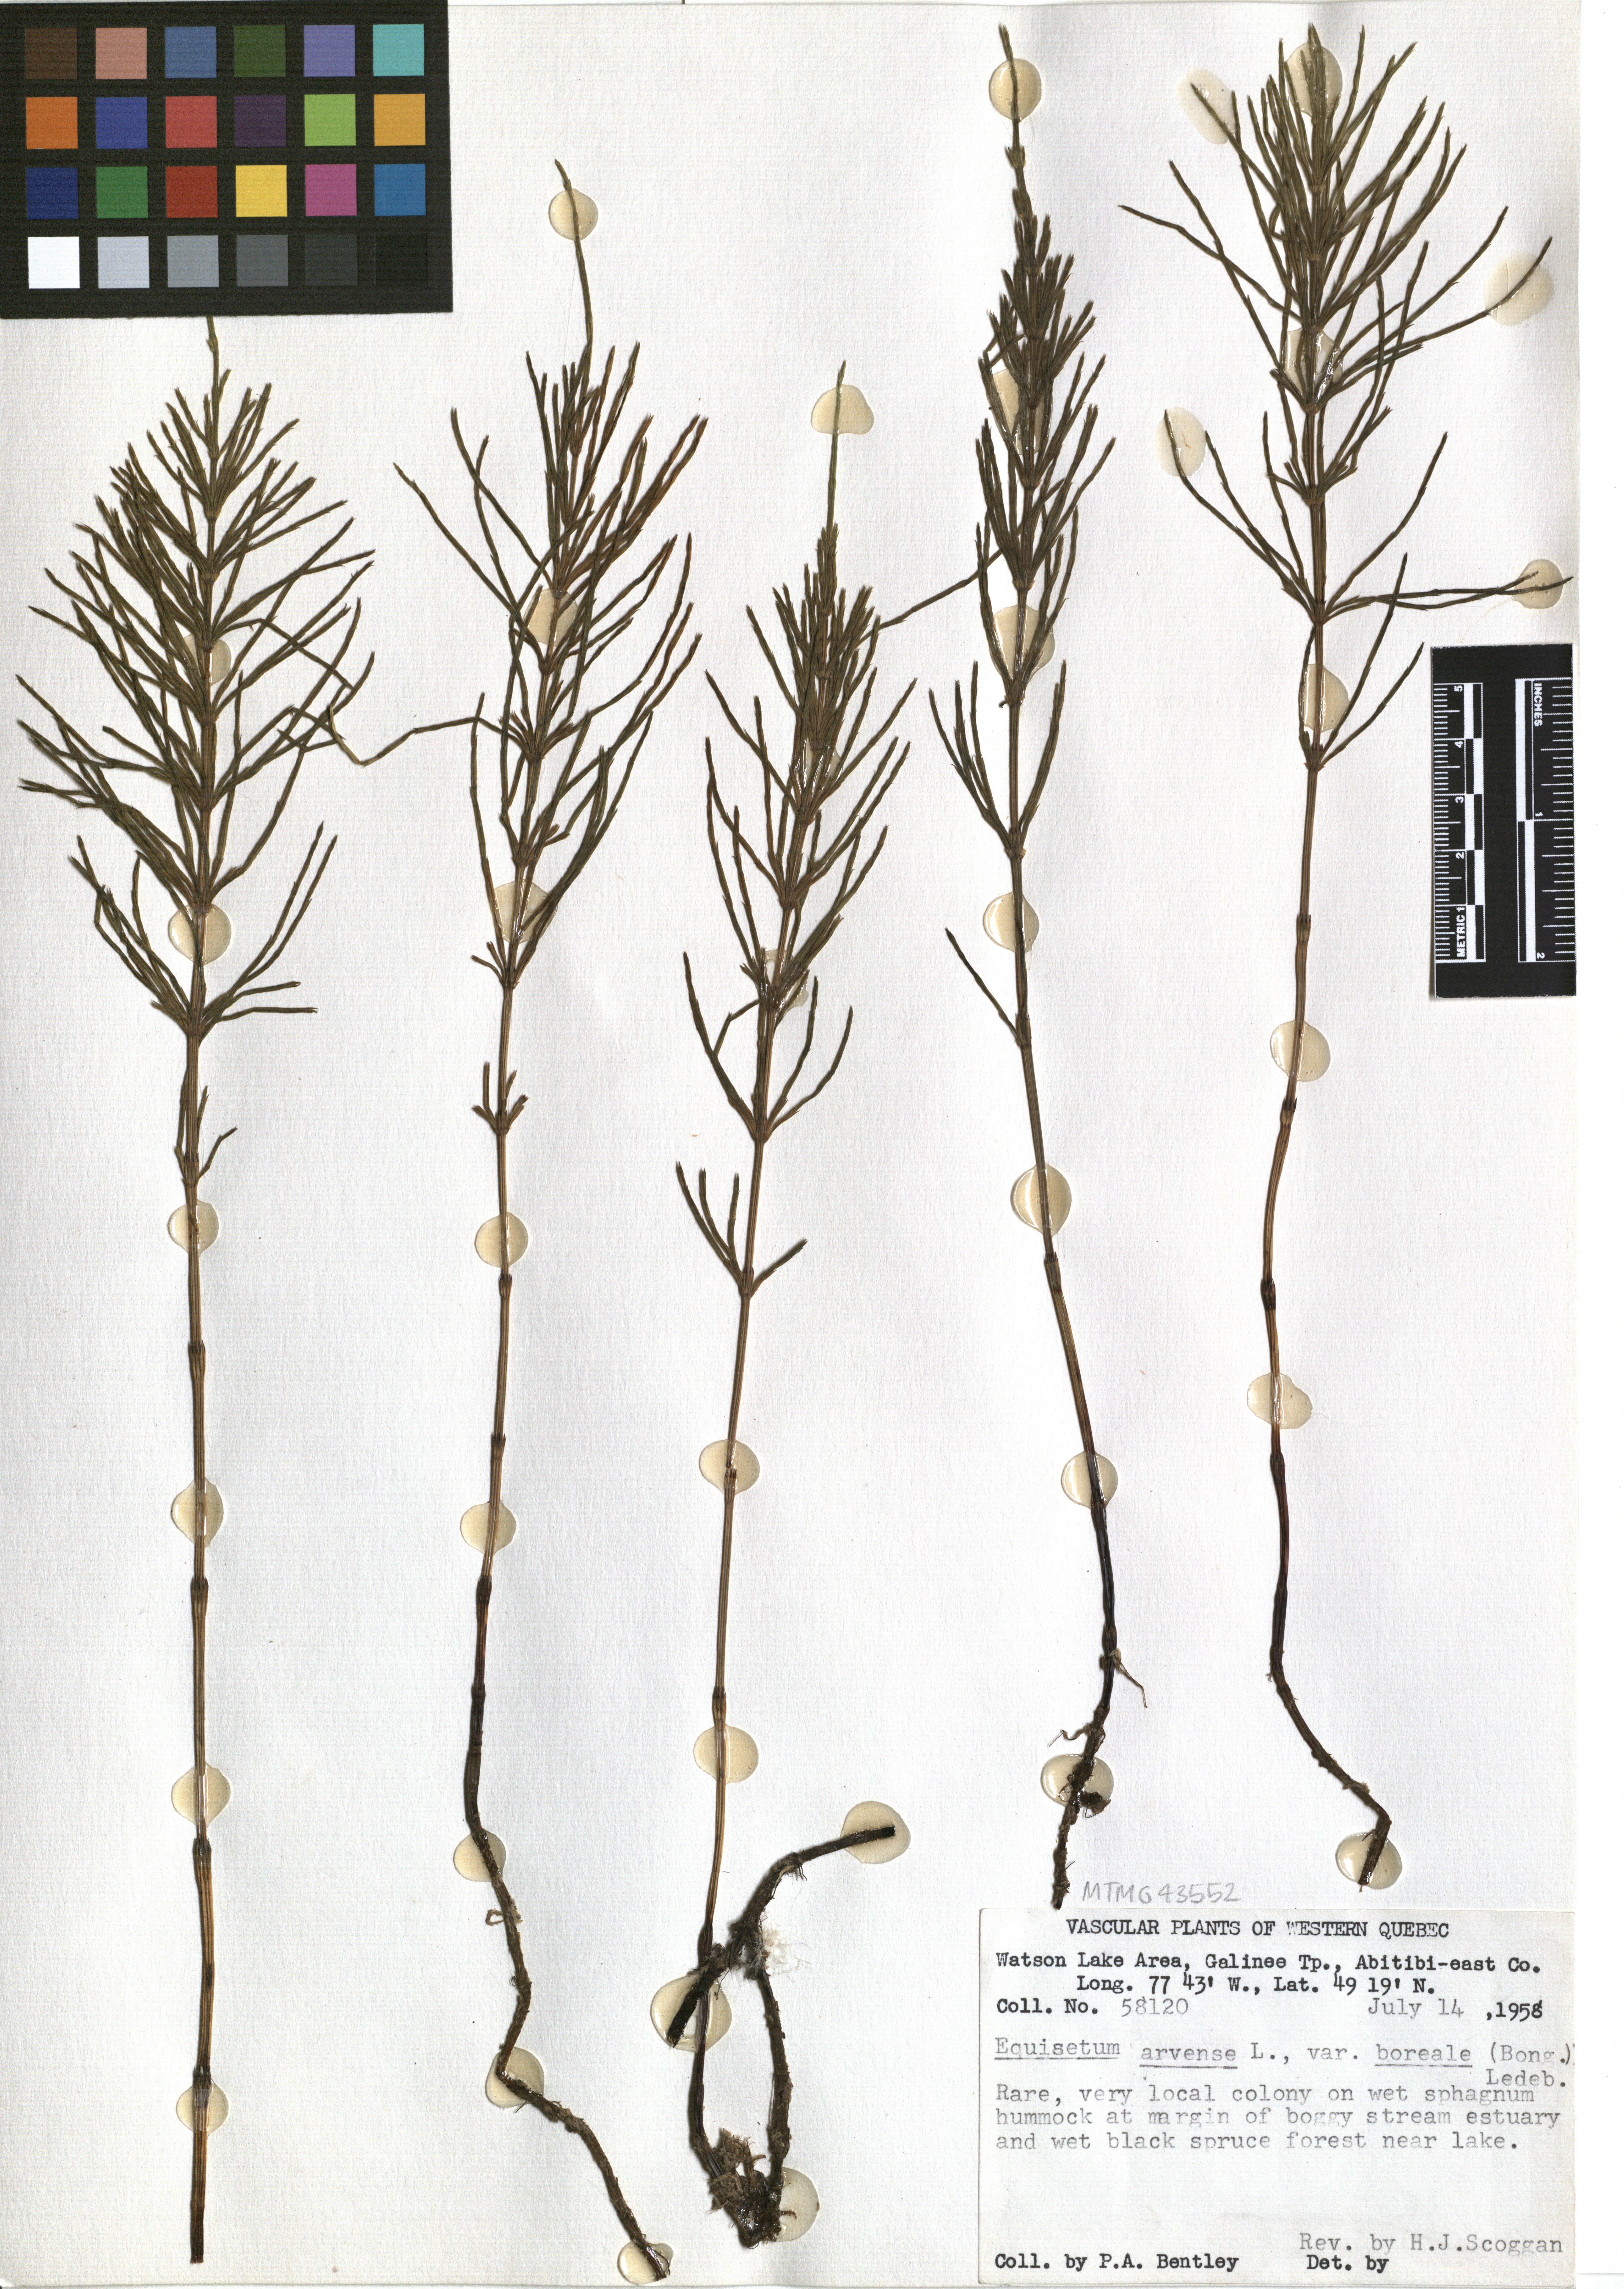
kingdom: Plantae
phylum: Tracheophyta
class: Polypodiopsida
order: Equisetales
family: Equisetaceae
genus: Equisetum
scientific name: Equisetum arvense
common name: Field horsetail
